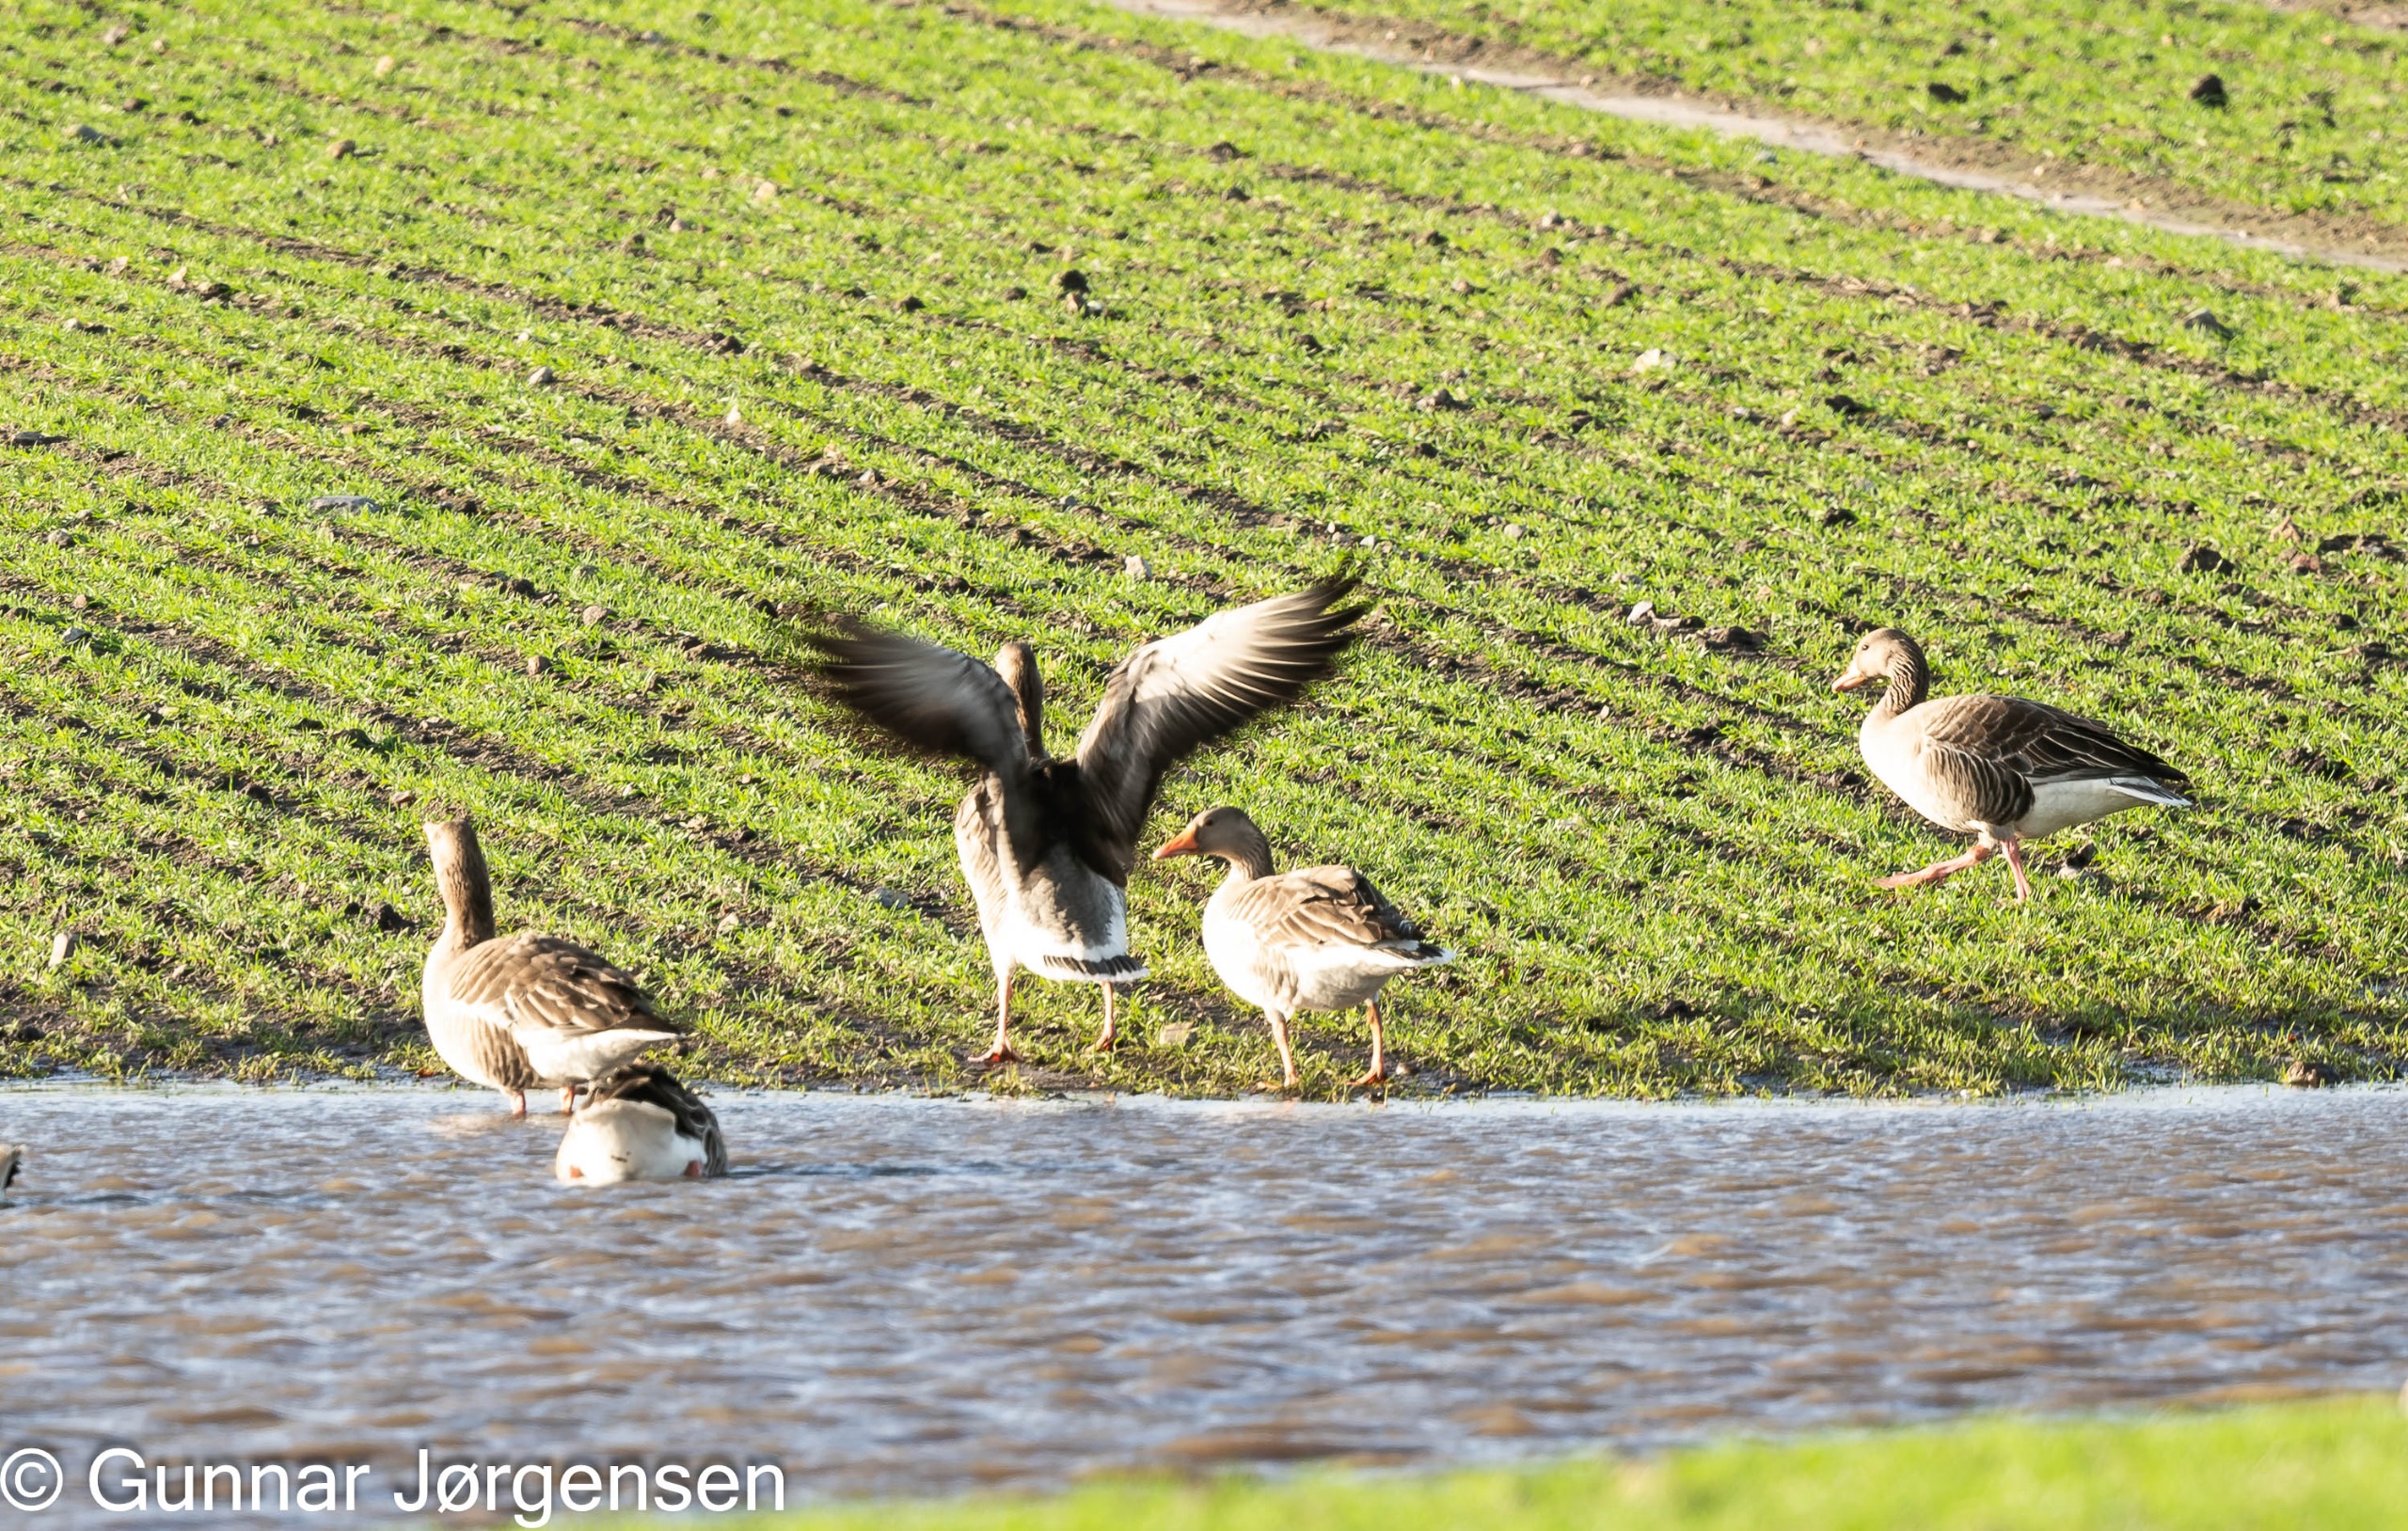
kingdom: Animalia
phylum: Chordata
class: Aves
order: Anseriformes
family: Anatidae
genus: Anser
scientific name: Anser anser
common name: Grågås
